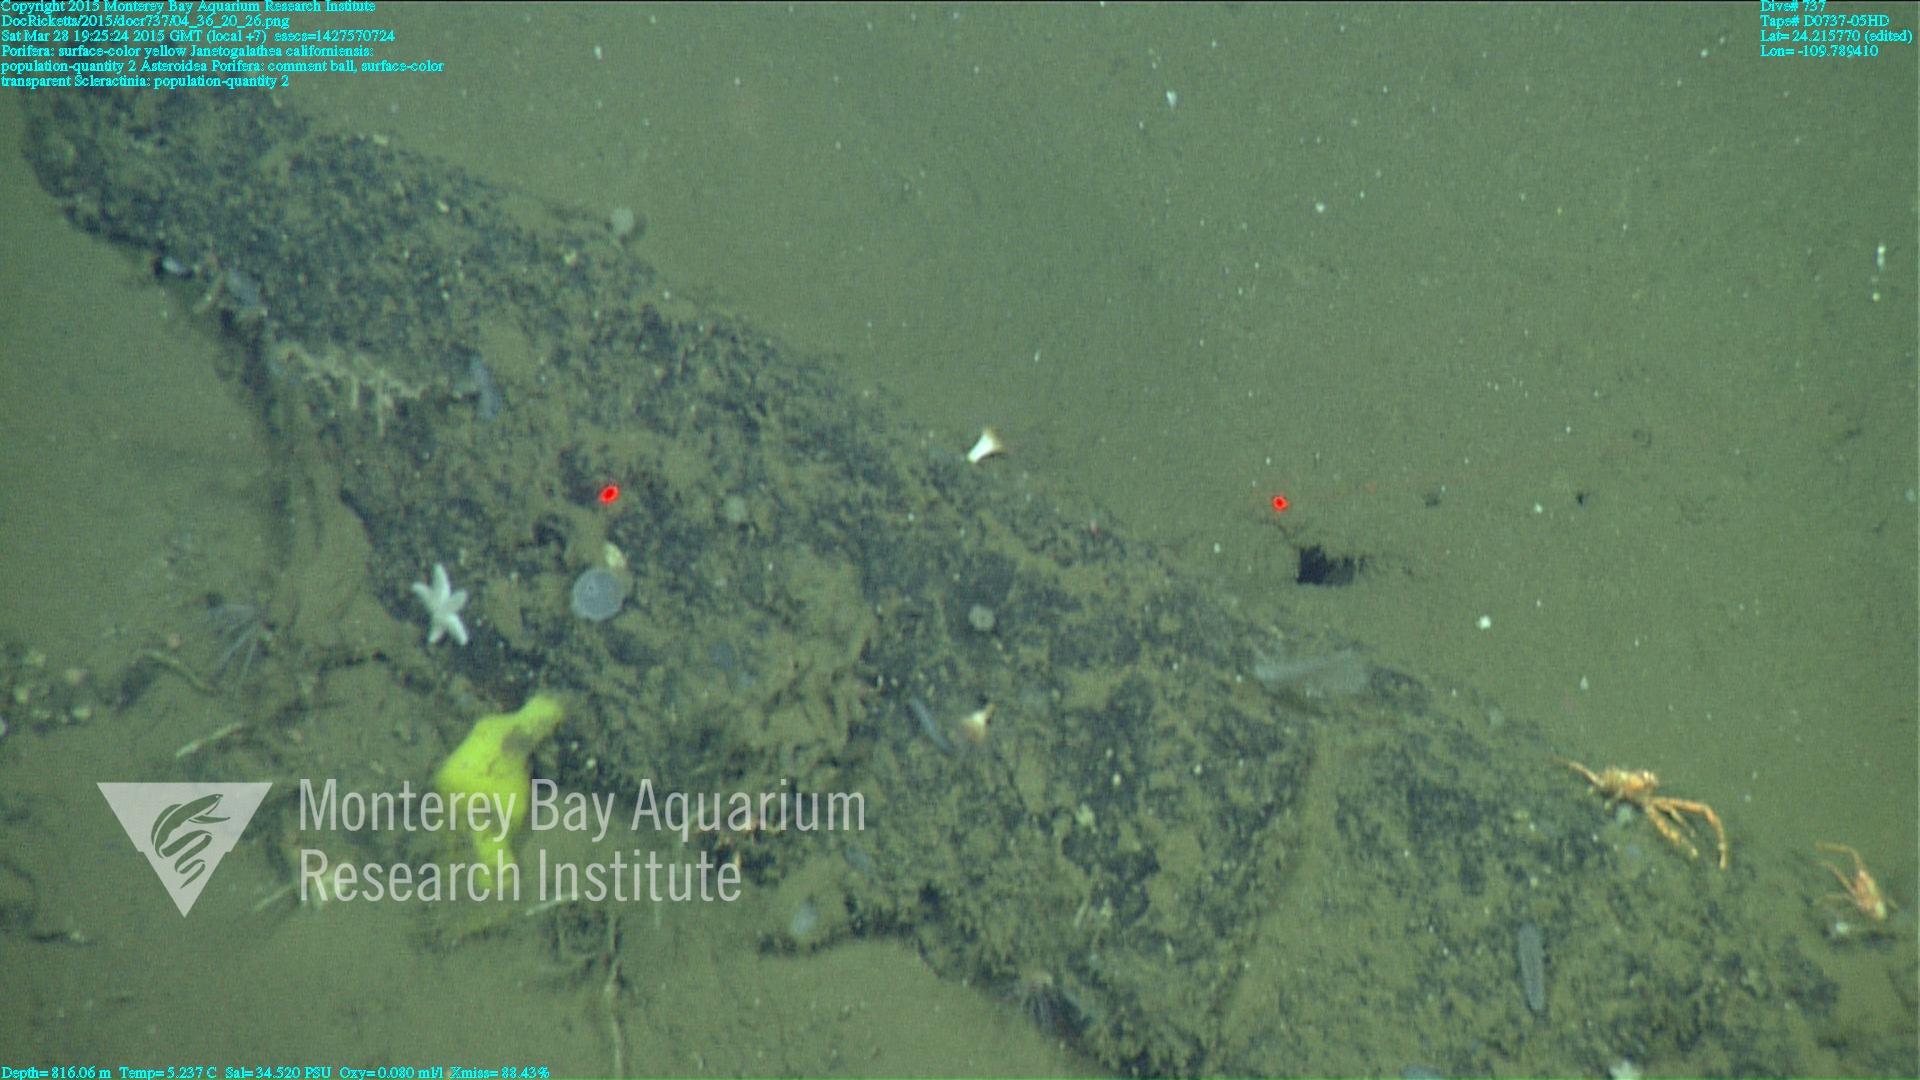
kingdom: Animalia
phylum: Cnidaria
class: Anthozoa
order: Scleractinia
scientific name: Scleractinia
